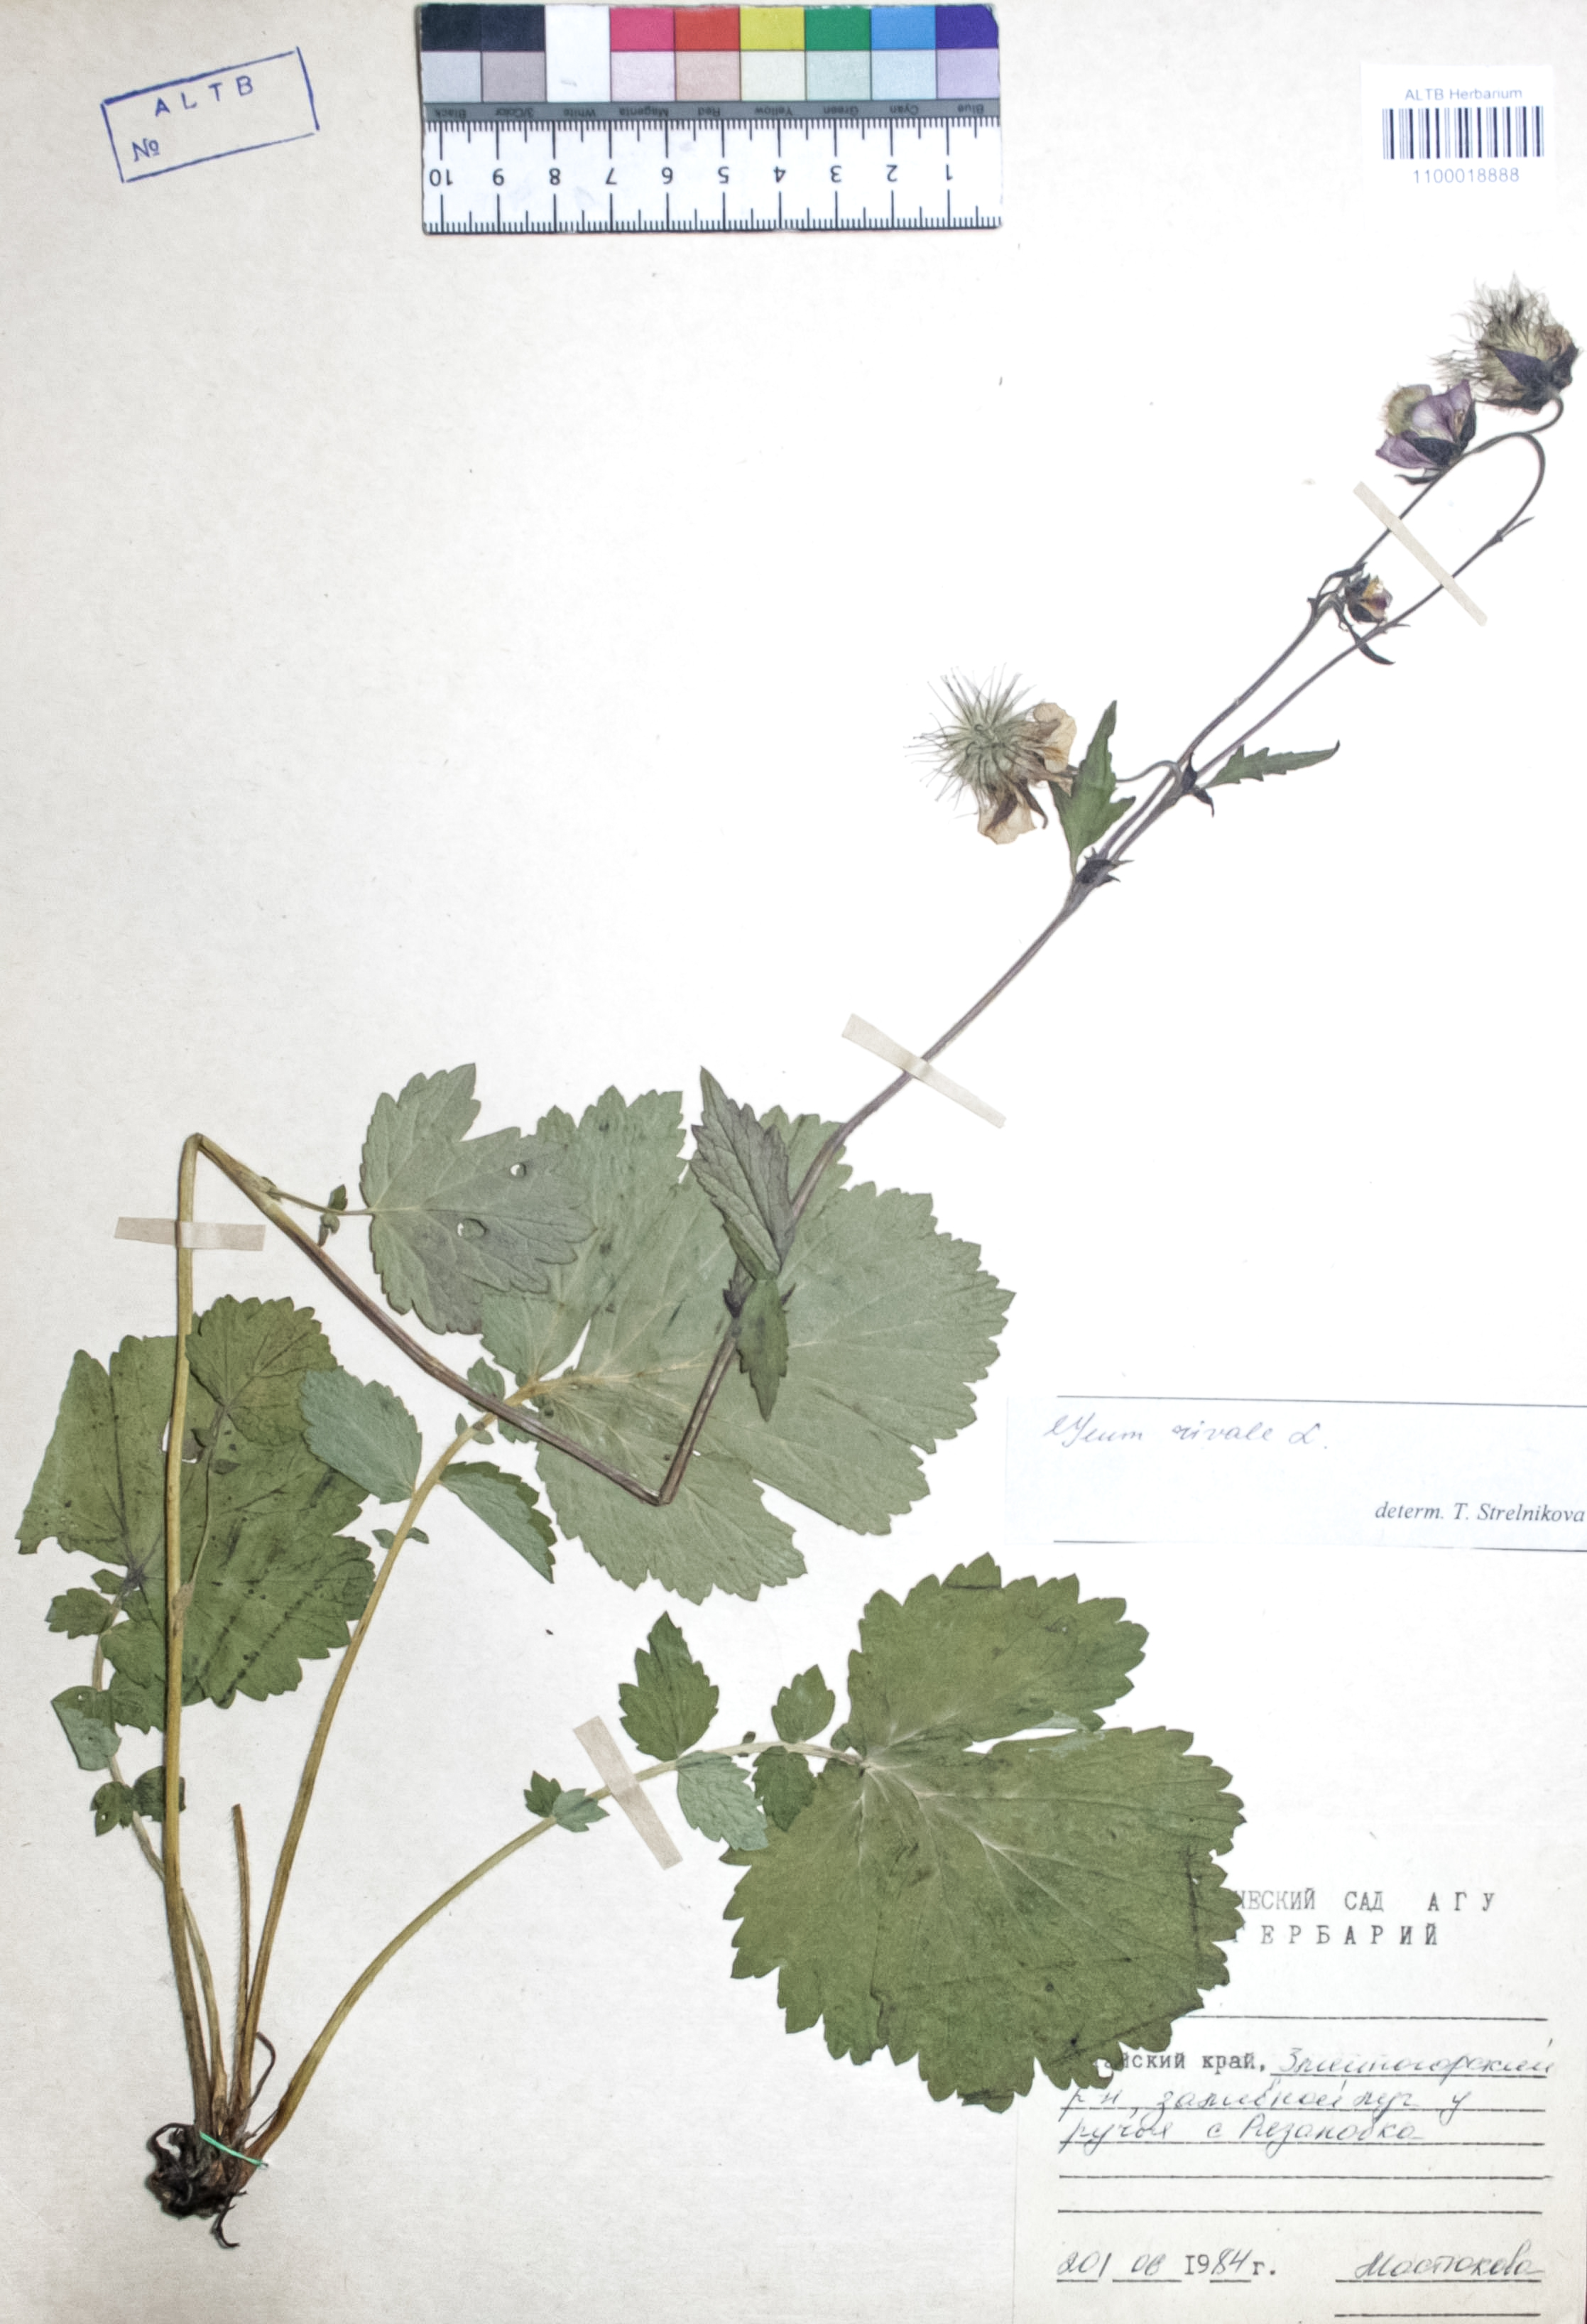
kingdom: Plantae
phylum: Tracheophyta
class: Magnoliopsida
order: Rosales
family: Rosaceae
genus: Geum
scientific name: Geum rivale
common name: Water avens
